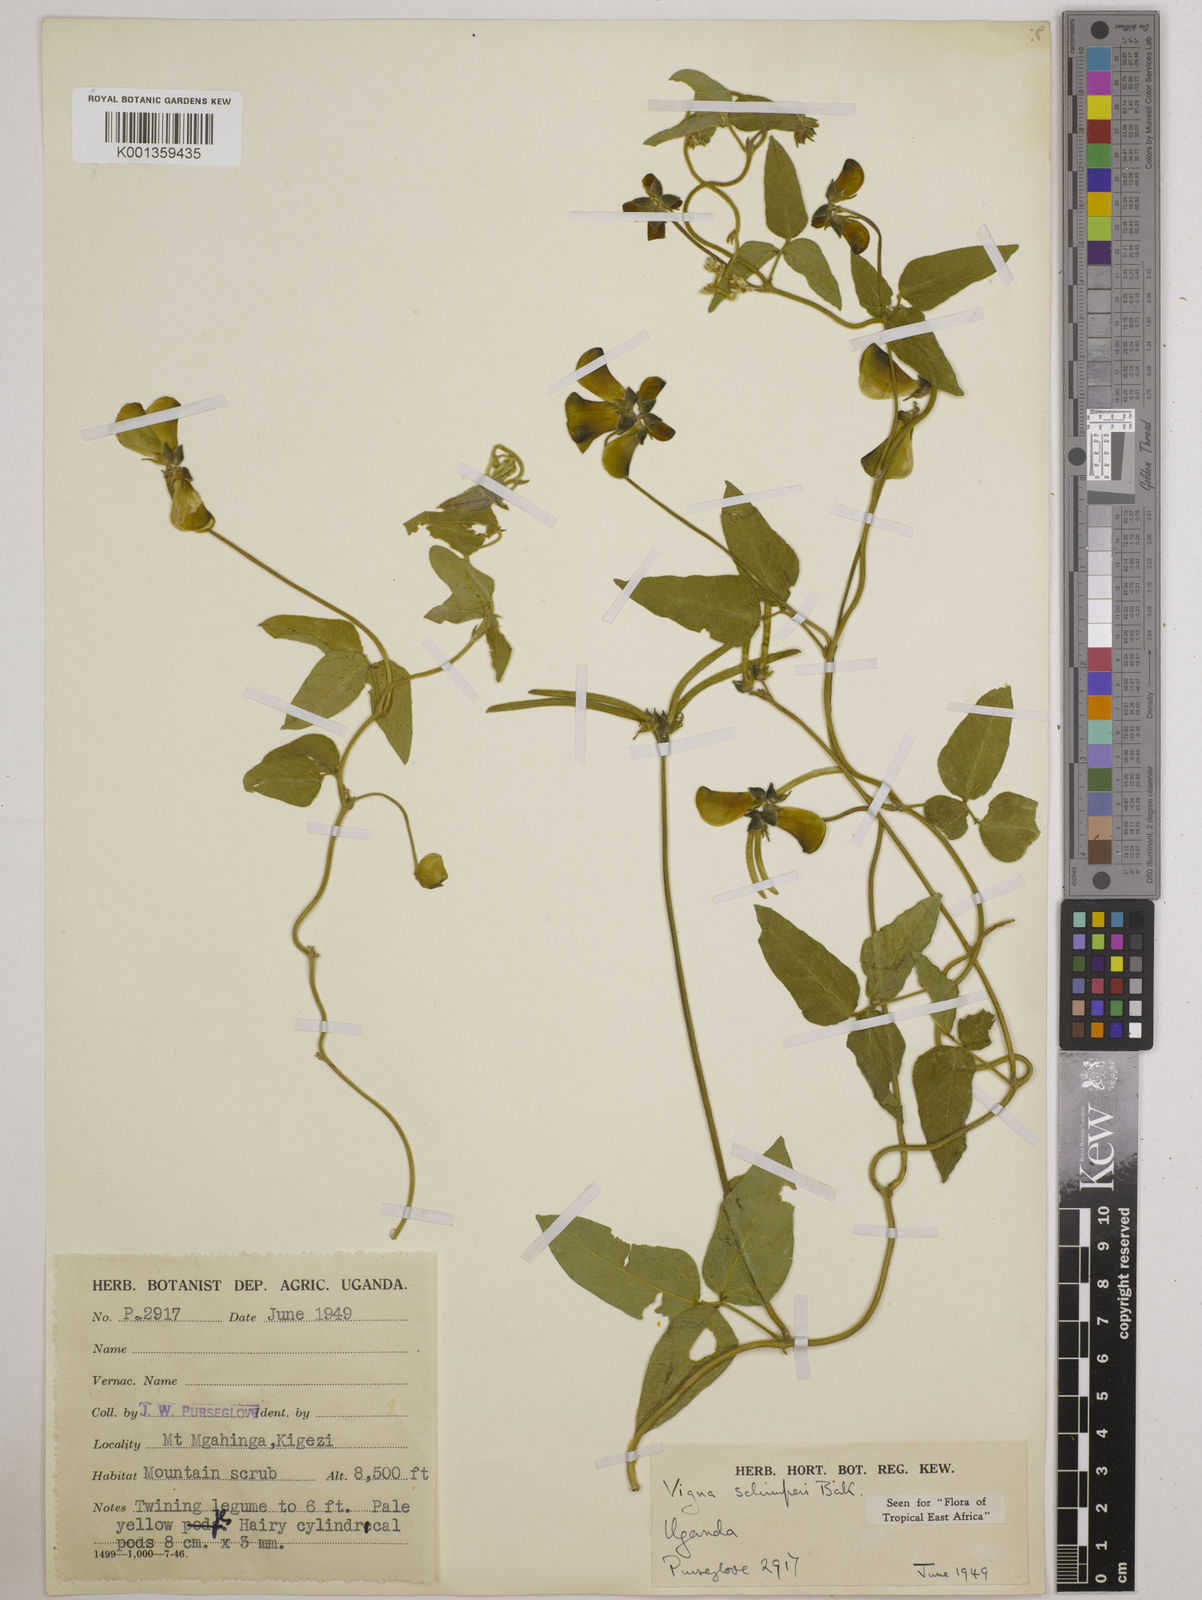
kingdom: Plantae
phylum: Tracheophyta
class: Magnoliopsida
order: Fabales
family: Fabaceae
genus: Vigna
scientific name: Vigna schimperi
